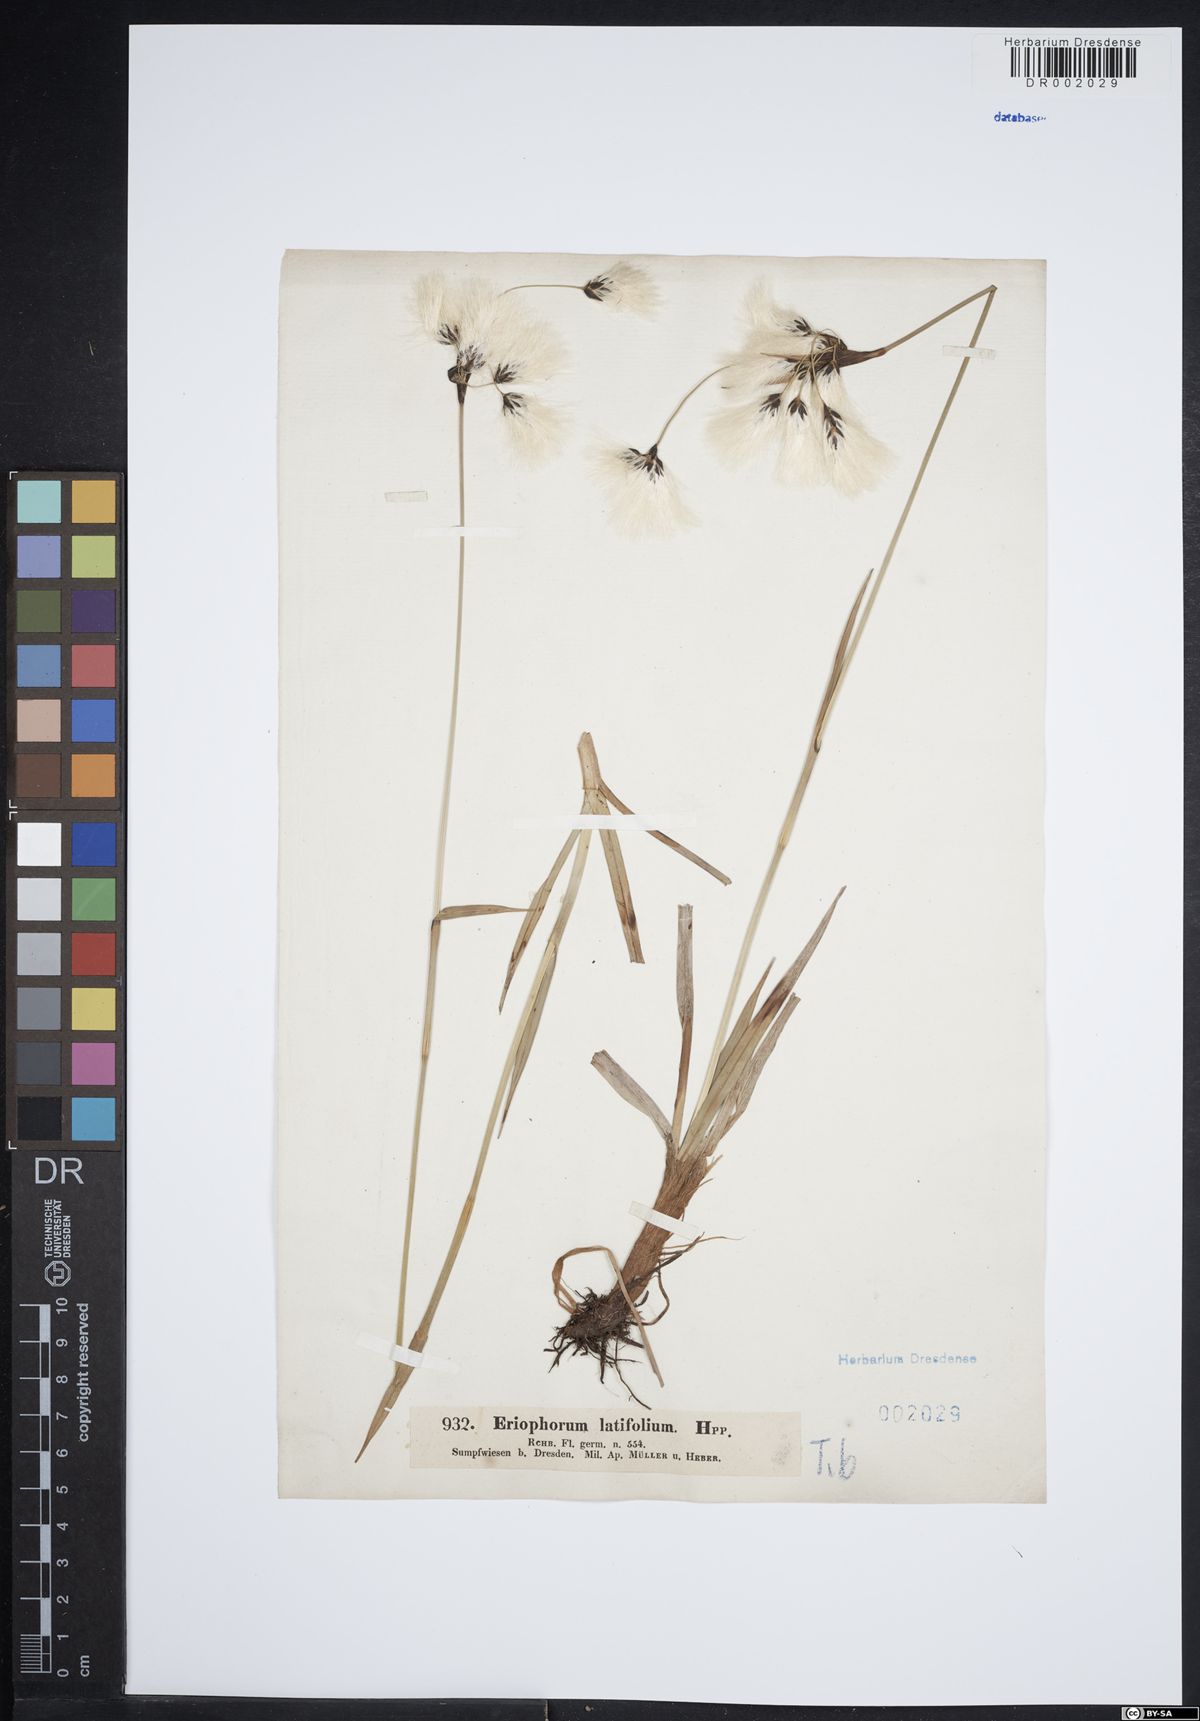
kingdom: Plantae
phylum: Tracheophyta
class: Liliopsida
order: Poales
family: Cyperaceae
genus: Eriophorum
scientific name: Eriophorum latifolium
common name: Broad-leaved cottongrass
